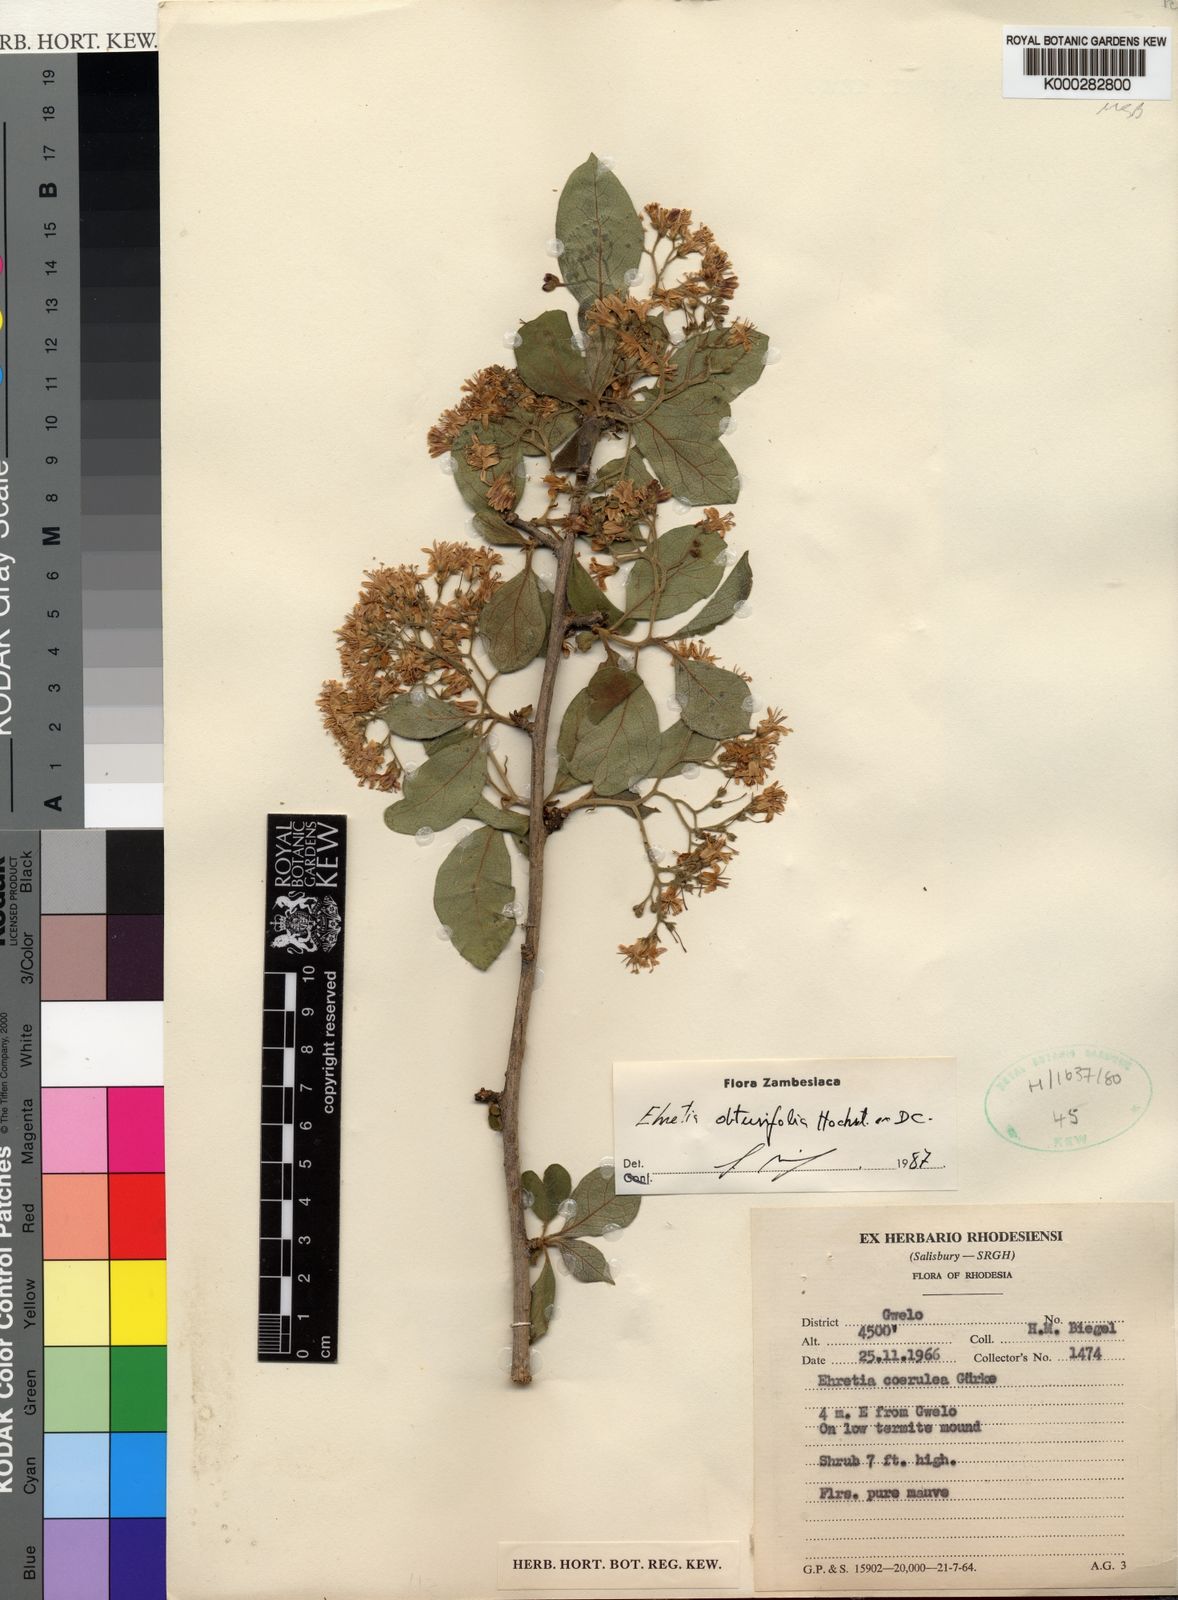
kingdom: Plantae
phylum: Tracheophyta
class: Magnoliopsida
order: Boraginales
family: Ehretiaceae
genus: Ehretia
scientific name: Ehretia obtusifolia
